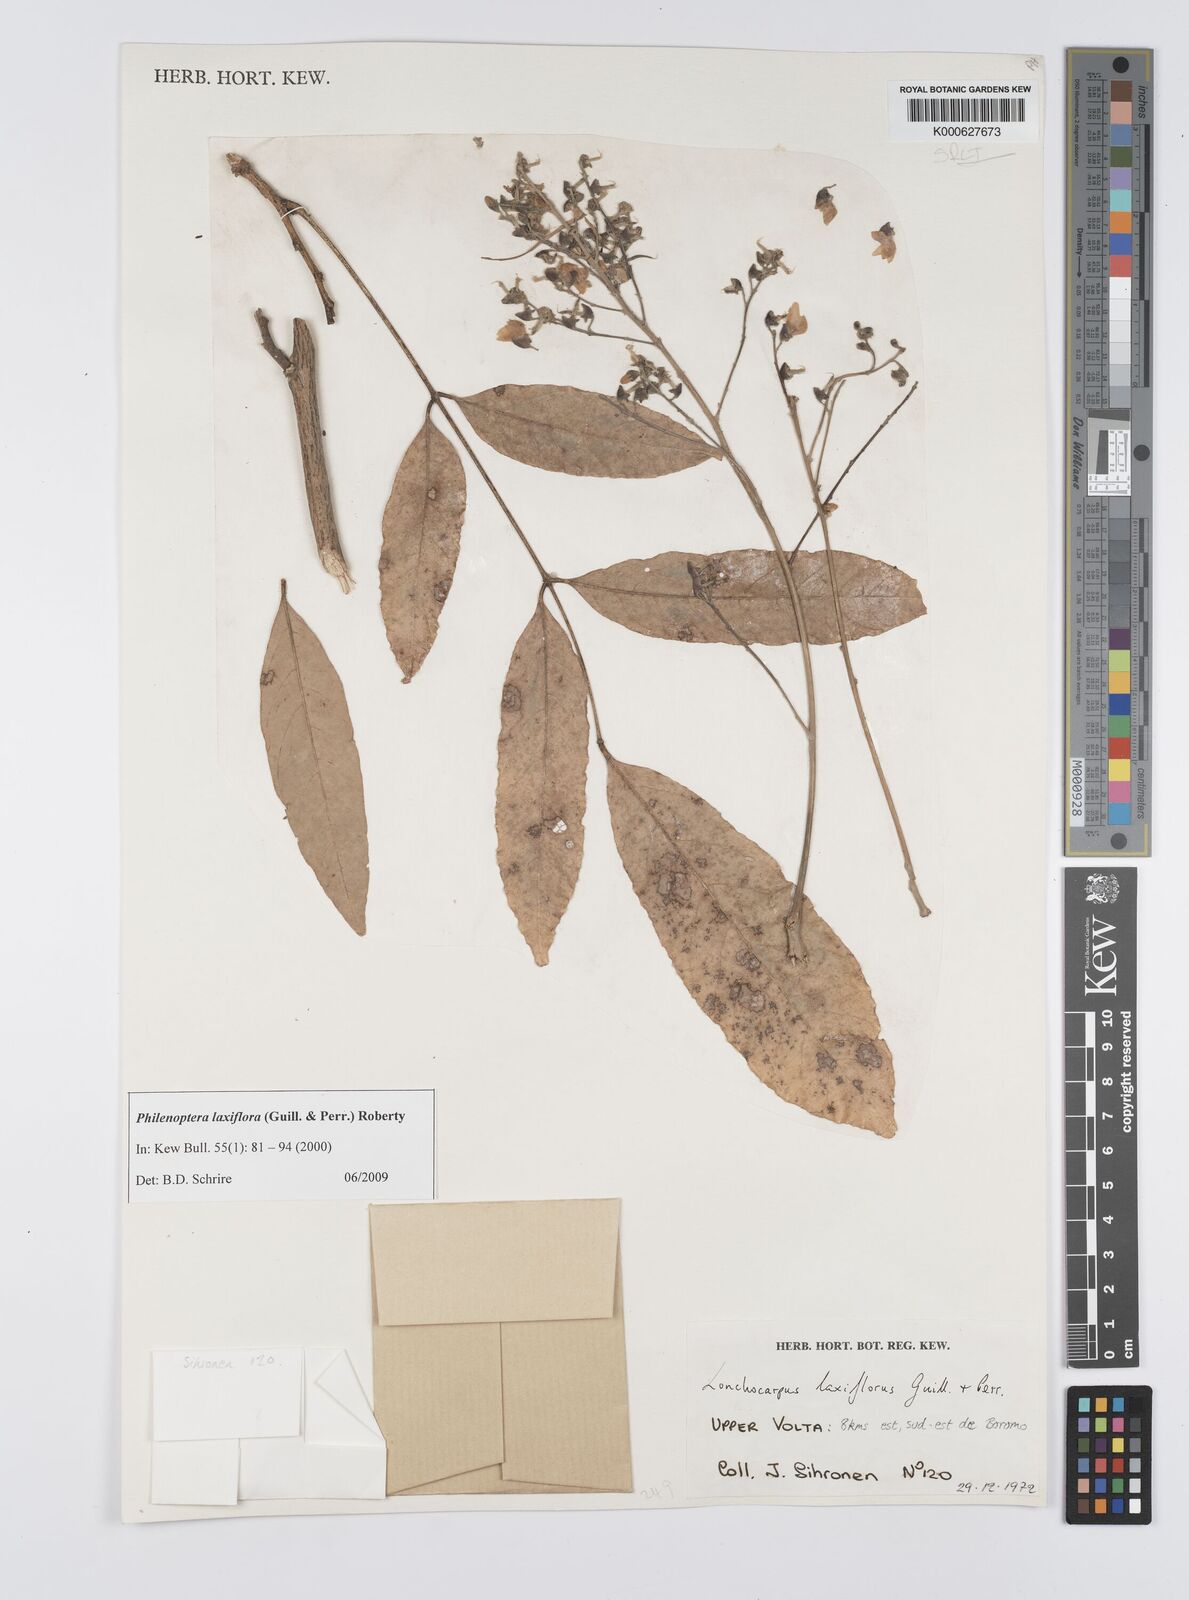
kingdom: Plantae
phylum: Tracheophyta
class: Magnoliopsida
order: Fabales
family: Fabaceae
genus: Philenoptera
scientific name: Philenoptera laxiflora
